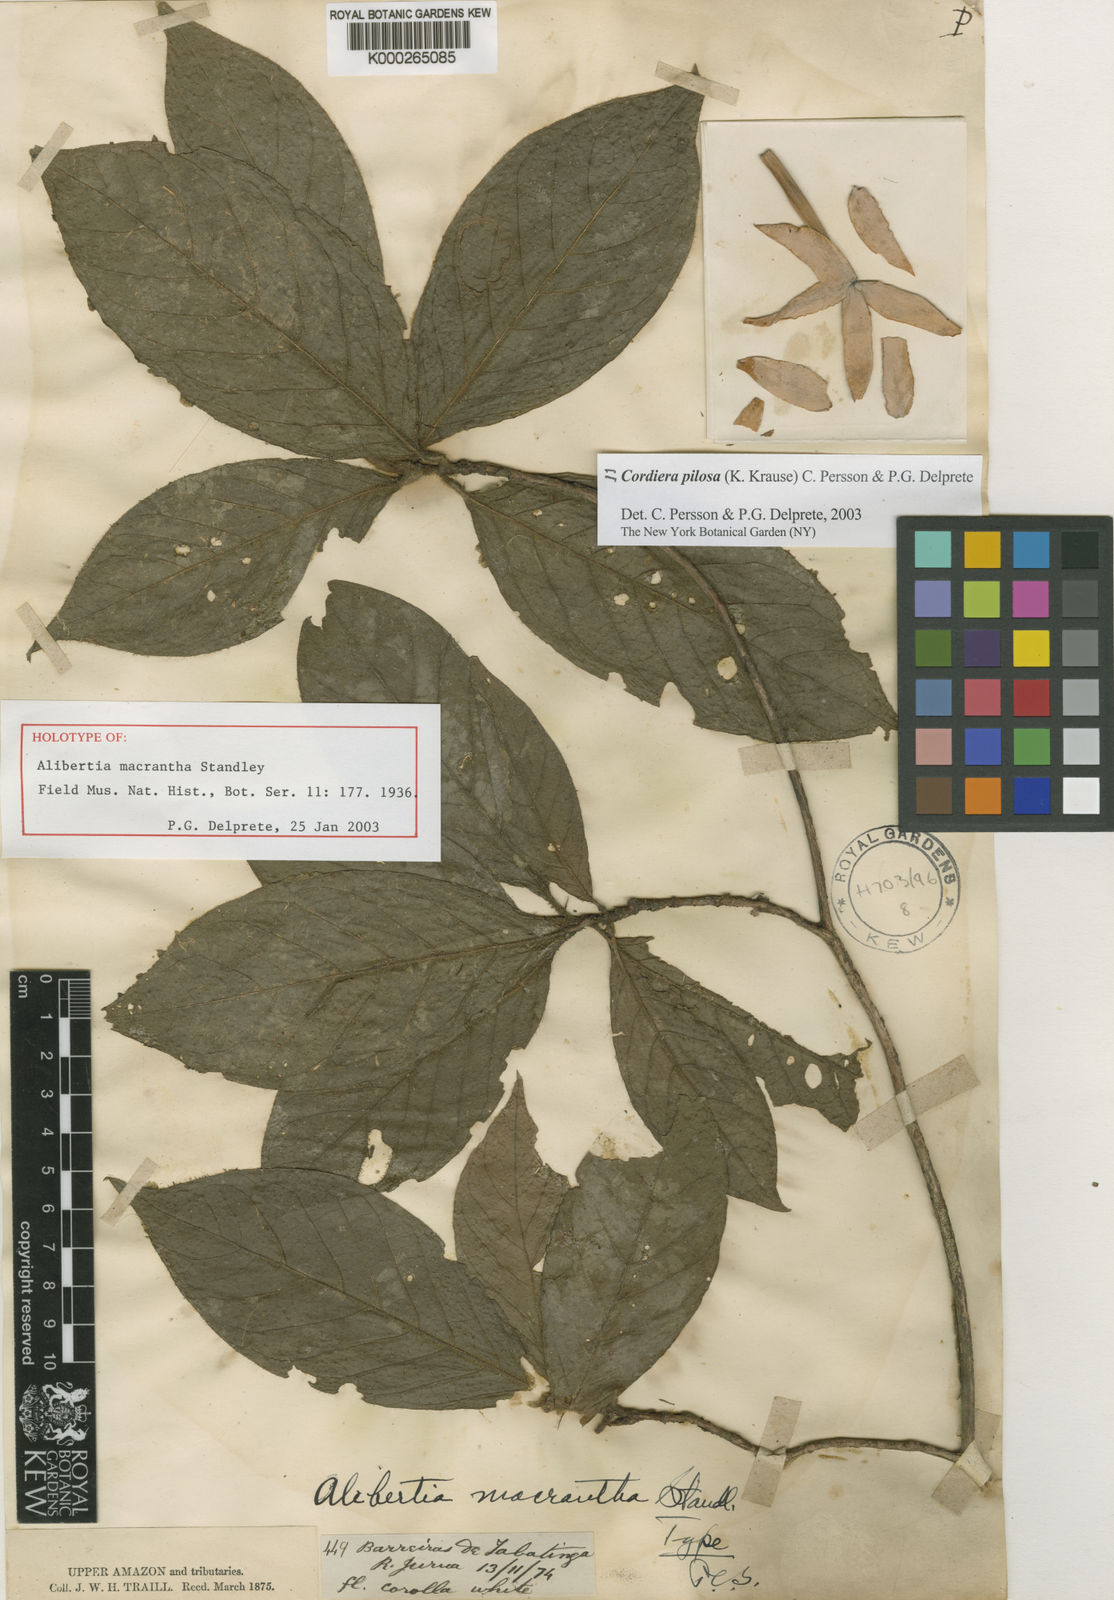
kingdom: Plantae
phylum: Tracheophyta
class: Magnoliopsida
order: Gentianales
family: Rubiaceae
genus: Cordiera
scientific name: Cordiera killipii
